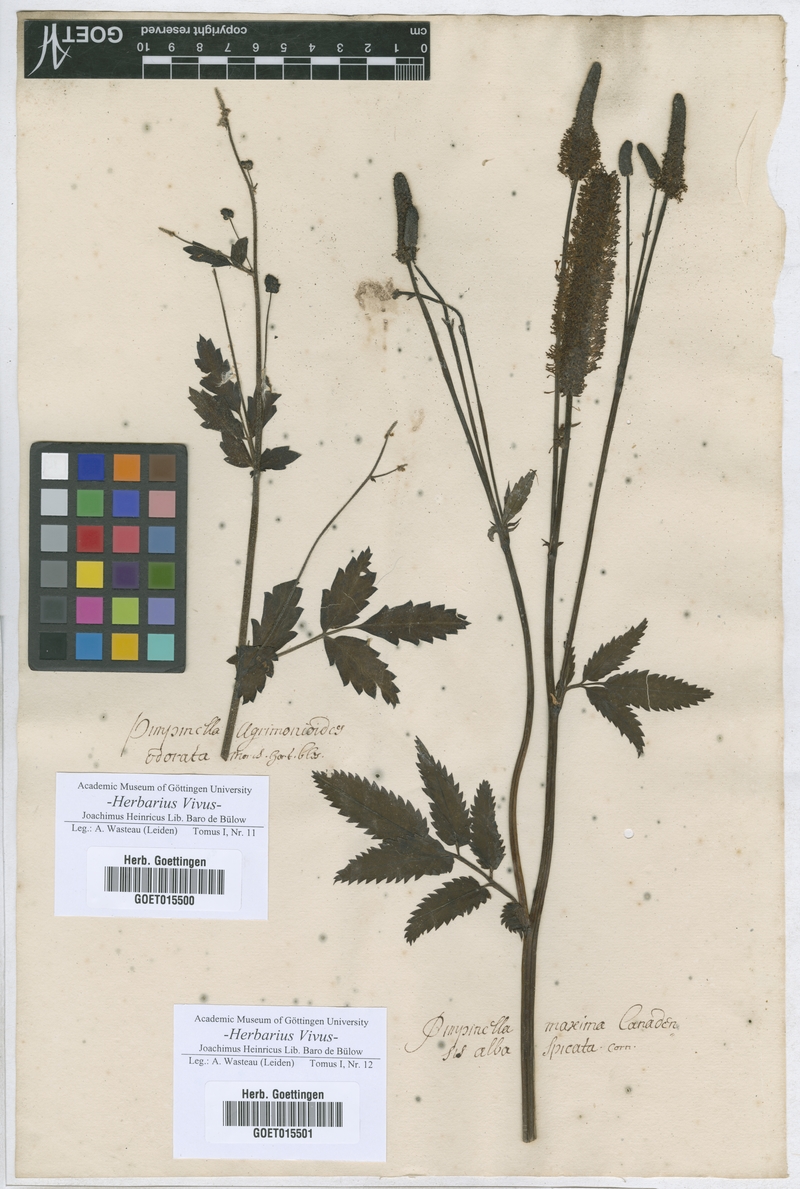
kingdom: Plantae
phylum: Tracheophyta
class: Magnoliopsida
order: Rosales
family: Rosaceae
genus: Pimpinella
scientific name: Pimpinella
